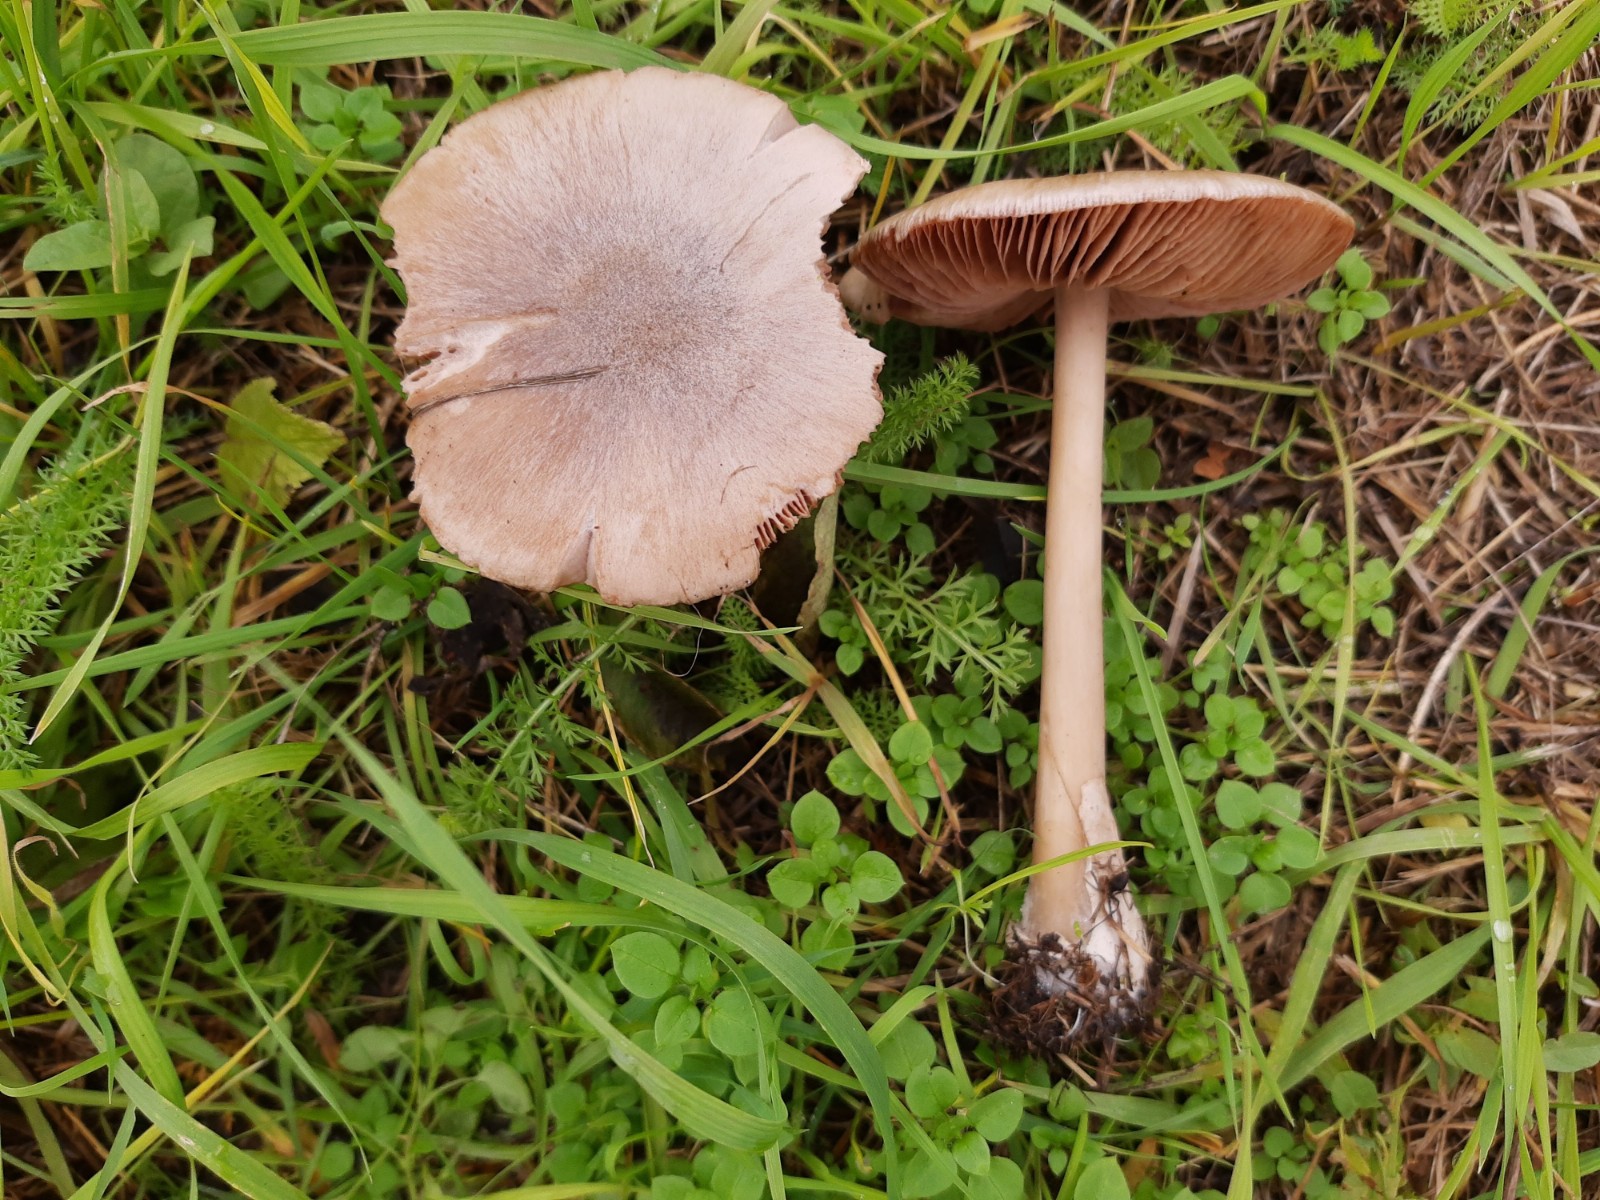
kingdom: Fungi
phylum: Basidiomycota
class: Agaricomycetes
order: Agaricales
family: Pluteaceae
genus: Volvopluteus
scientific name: Volvopluteus gloiocephalus
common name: høj posesvamp
